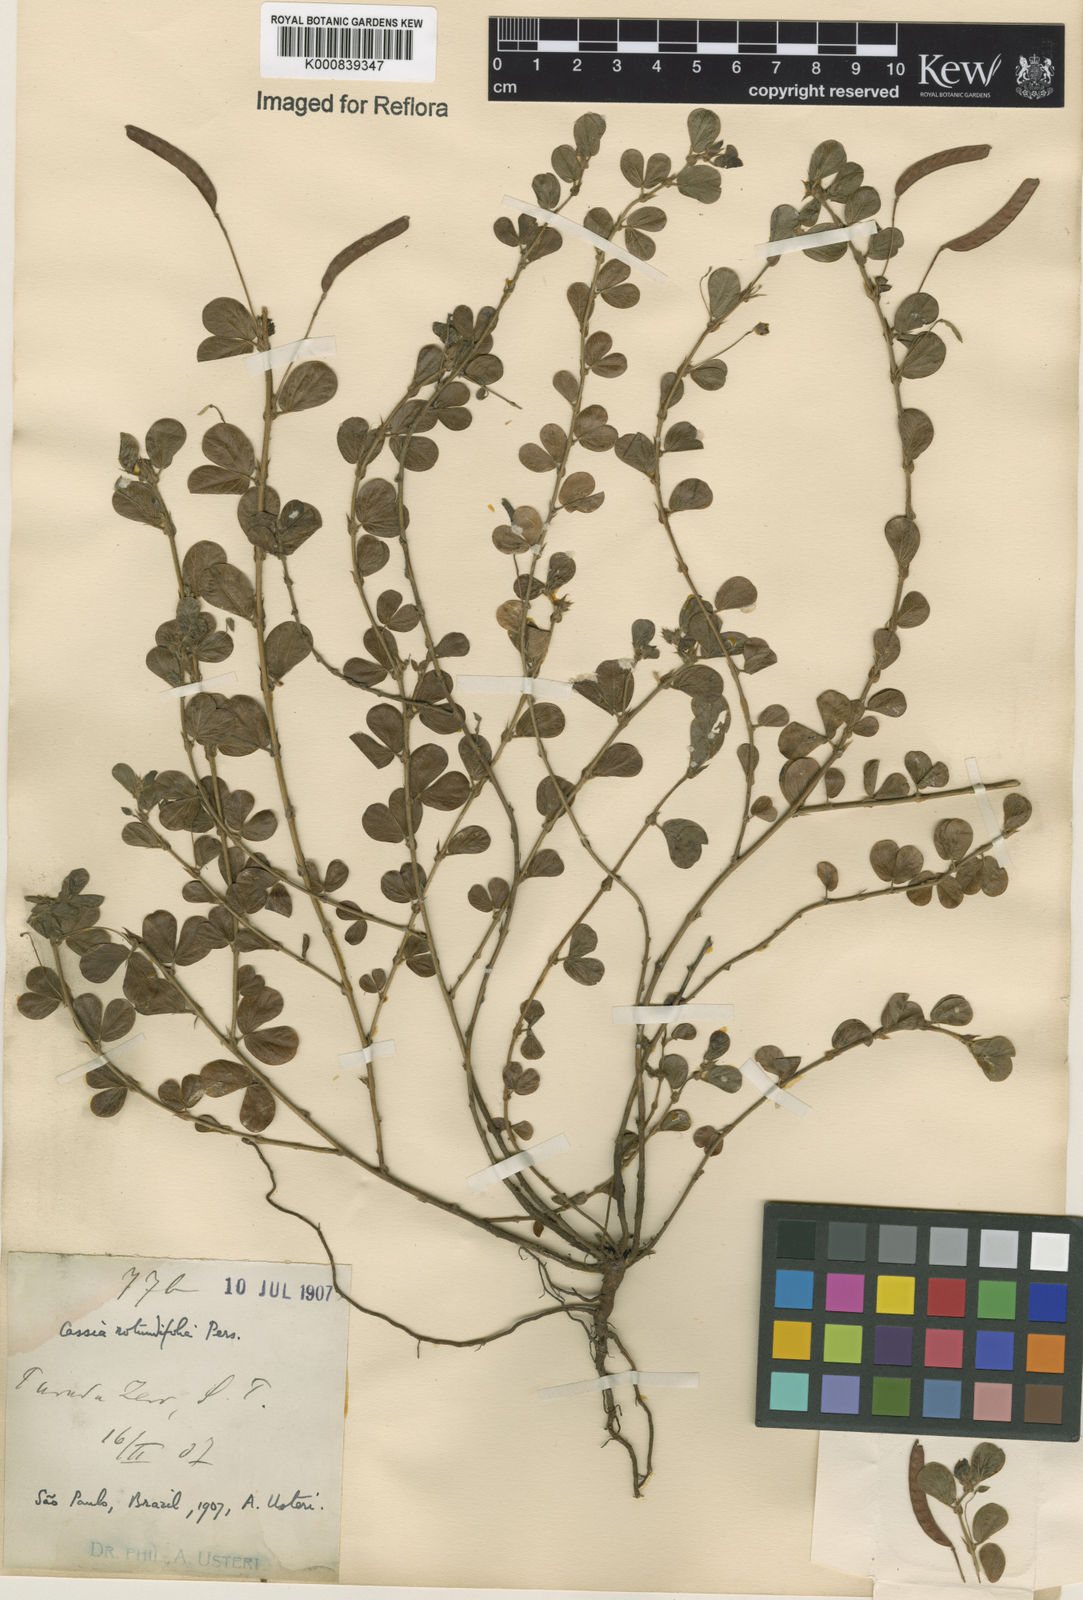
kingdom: Plantae
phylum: Tracheophyta
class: Magnoliopsida
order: Fabales
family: Fabaceae
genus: Chamaecrista
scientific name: Chamaecrista rotundifolia
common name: Round-leaf cassia
